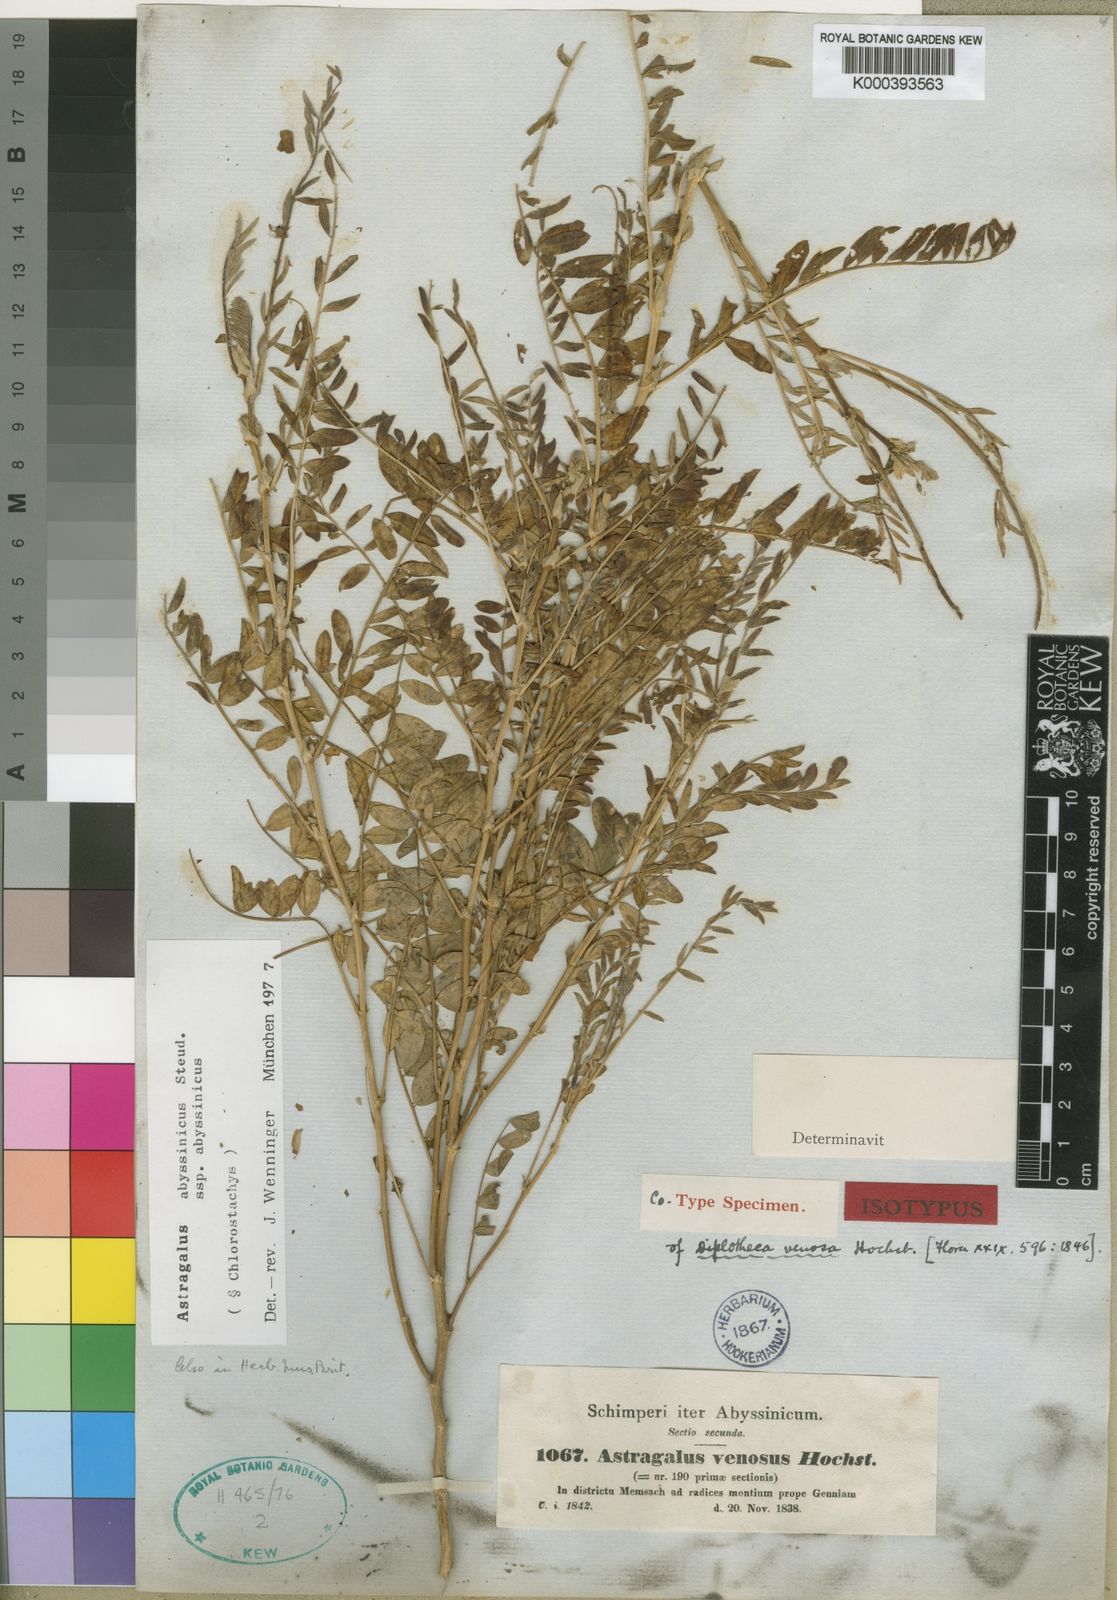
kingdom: Plantae
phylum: Tracheophyta
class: Magnoliopsida
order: Fabales
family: Fabaceae
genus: Astragalus
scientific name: Astragalus atropilosulus
